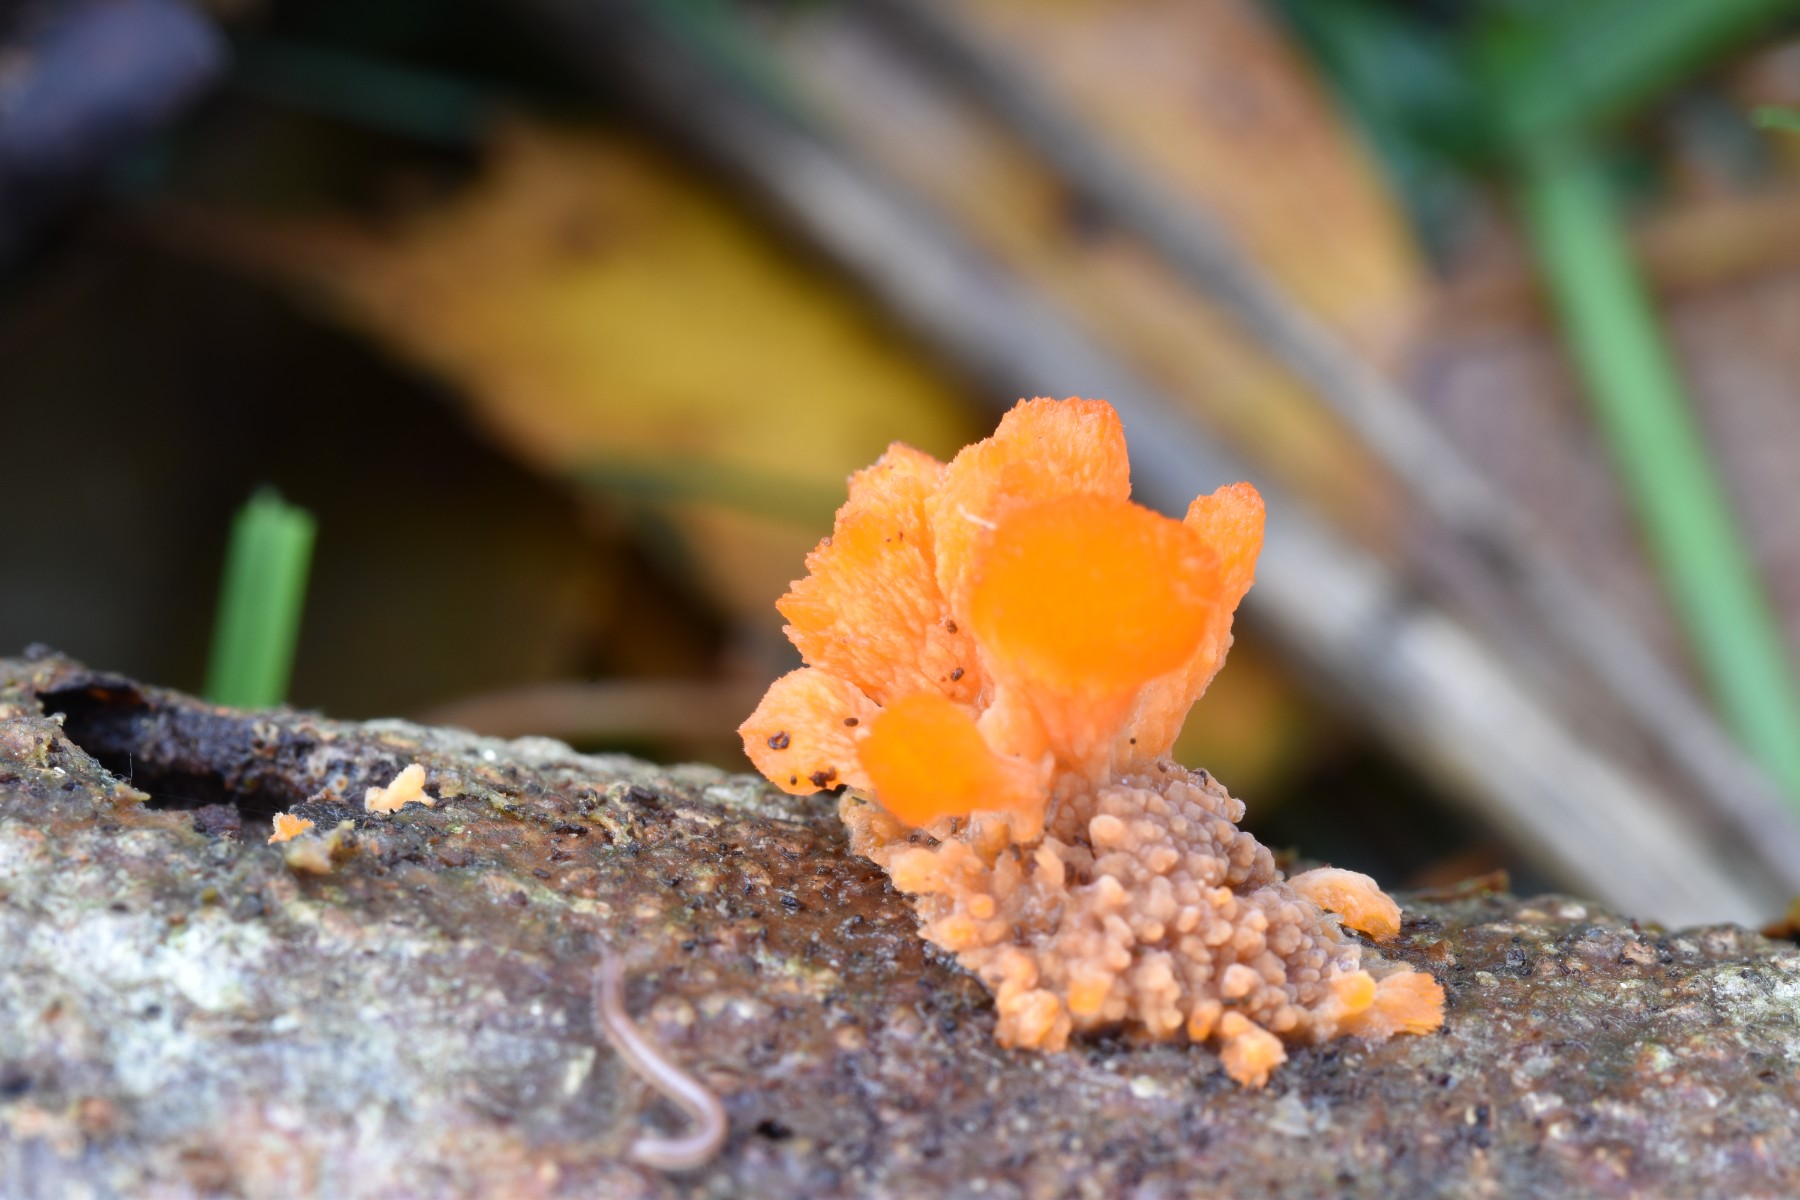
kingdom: Fungi
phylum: Basidiomycota
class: Agaricomycetes
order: Polyporales
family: Meruliaceae
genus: Phlebia
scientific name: Phlebia radiata
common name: stråle-åresvamp
